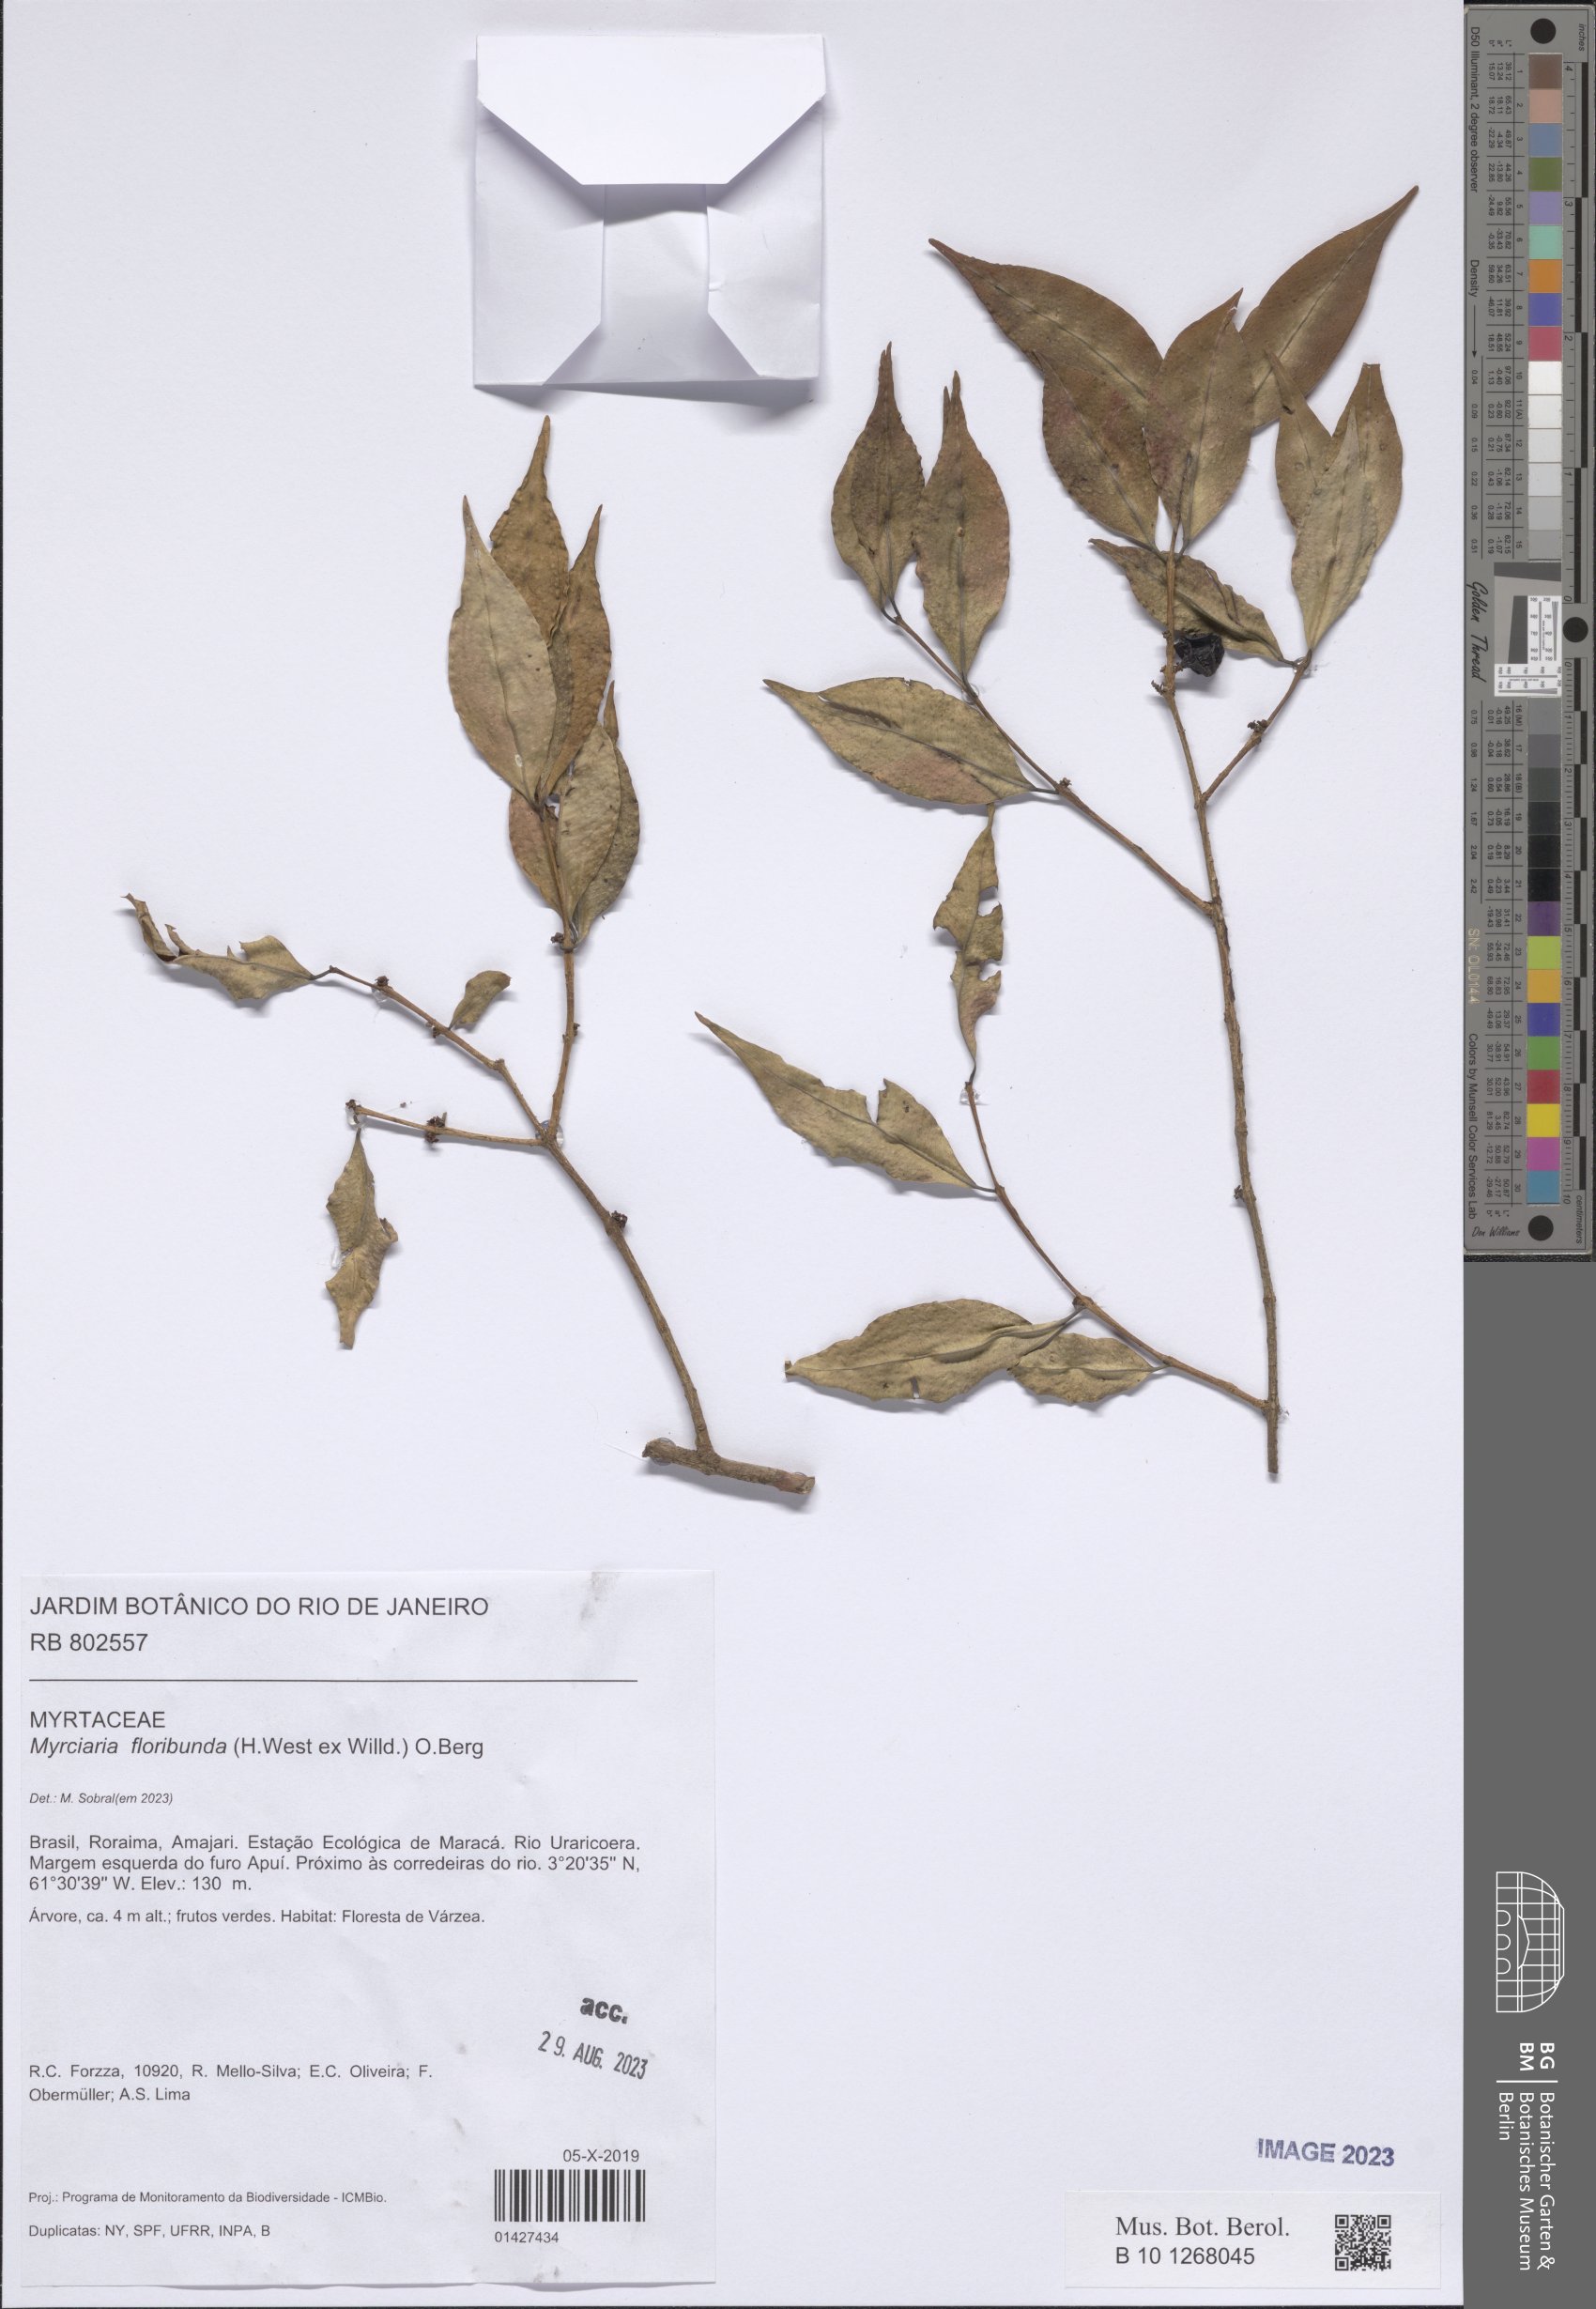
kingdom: Plantae
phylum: Tracheophyta
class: Magnoliopsida
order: Myrtales
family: Myrtaceae
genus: Myrciaria
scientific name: Myrciaria floribunda
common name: Guavaberry
